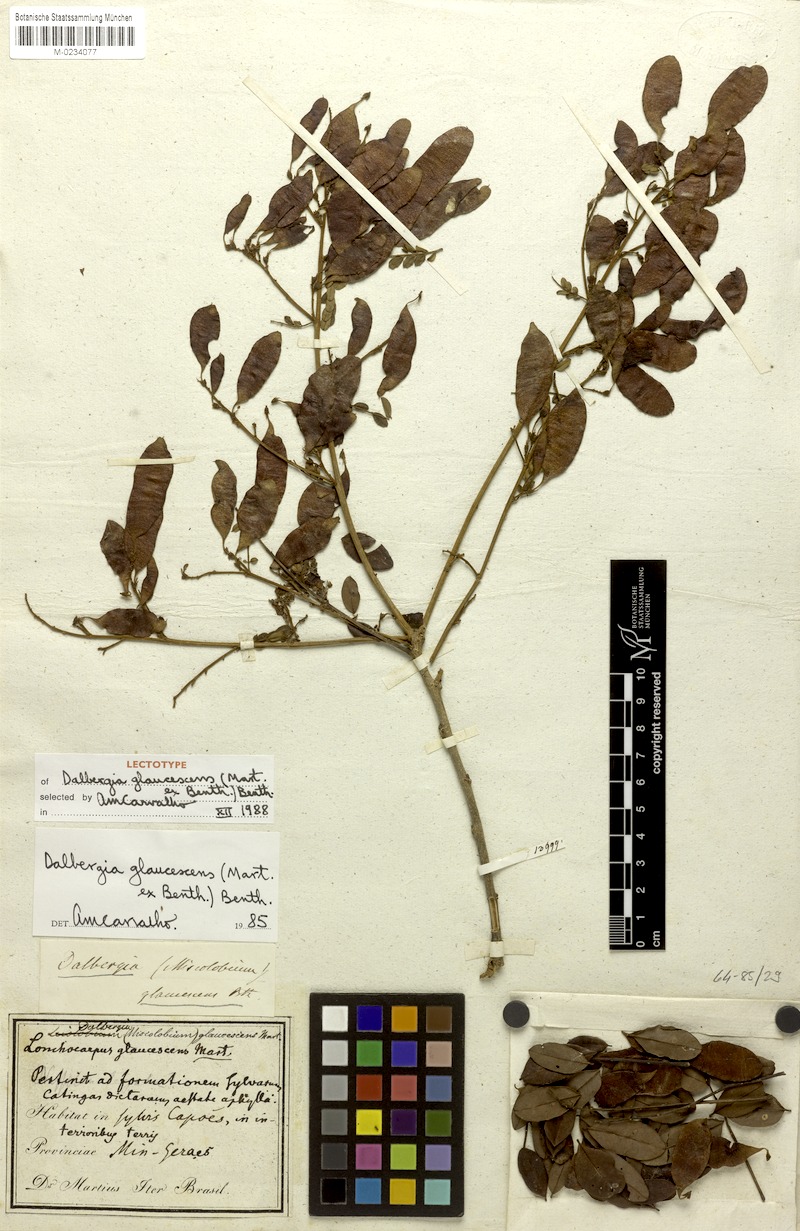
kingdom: Plantae
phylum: Tracheophyta
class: Magnoliopsida
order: Fabales
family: Fabaceae
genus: Dalbergia
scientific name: Dalbergia glaucescens
